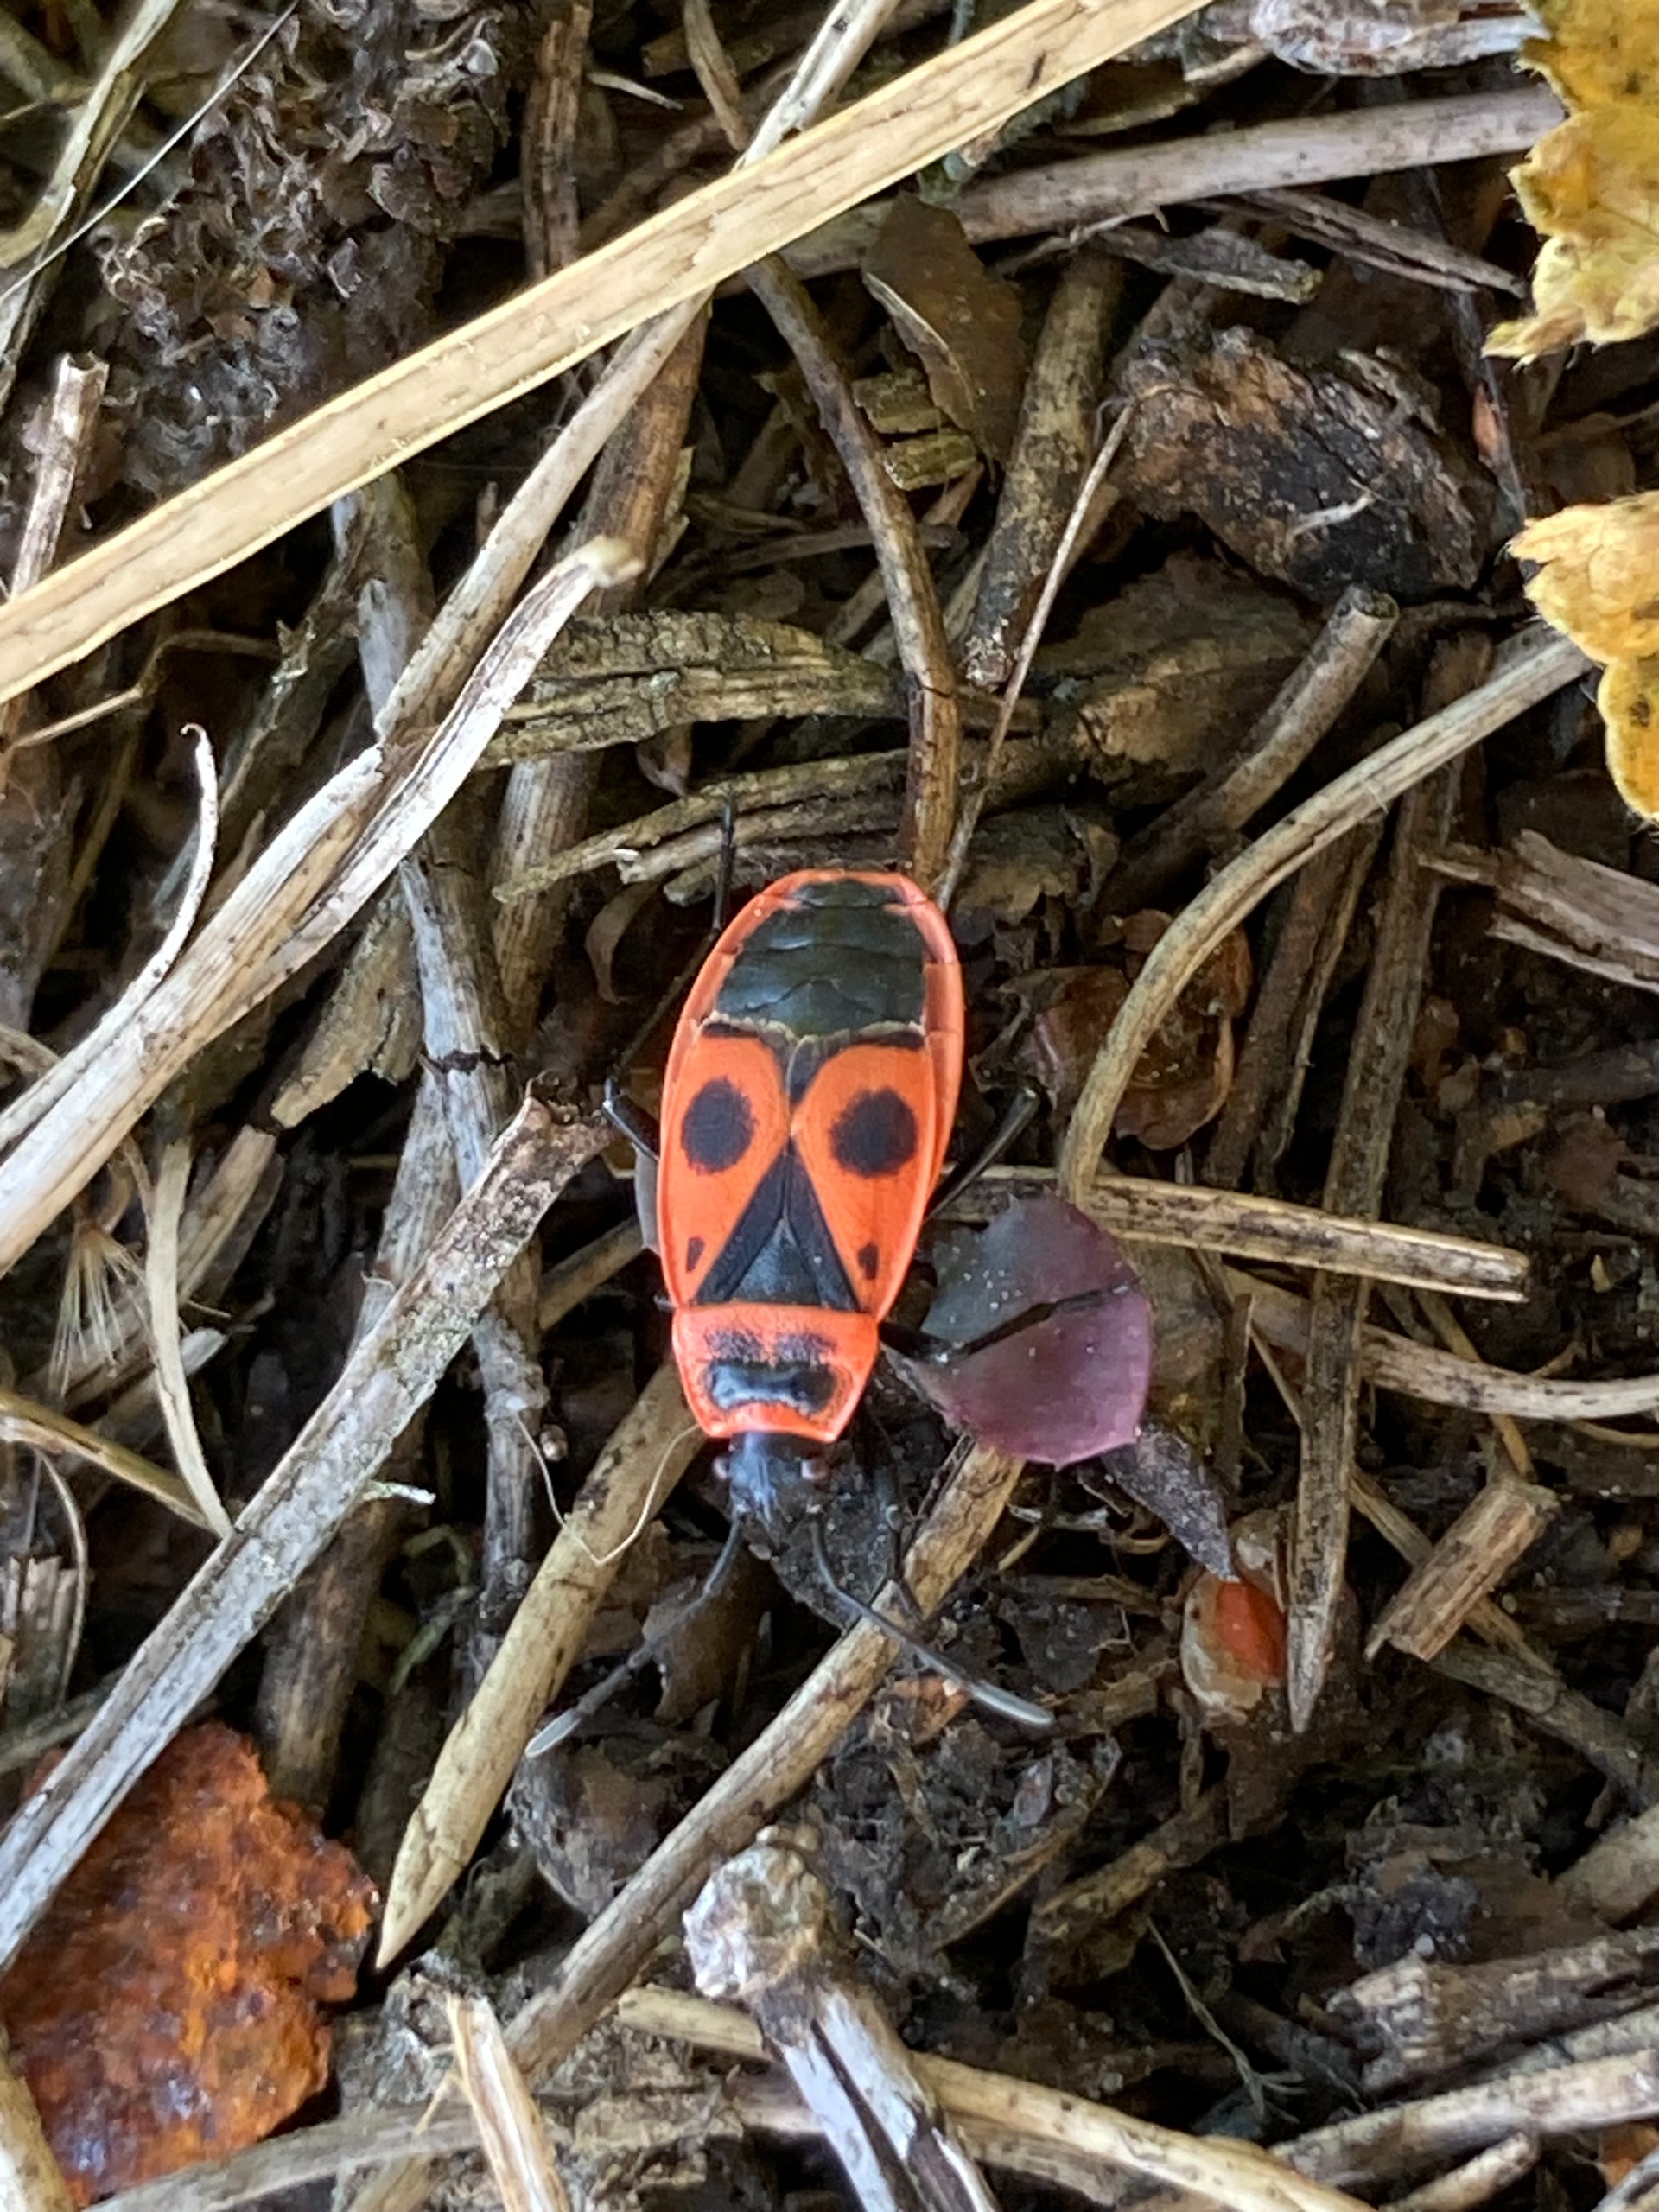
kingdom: Animalia
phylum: Arthropoda
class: Insecta
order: Hemiptera
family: Pyrrhocoridae
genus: Pyrrhocoris
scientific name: Pyrrhocoris apterus
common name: Ildtæge
